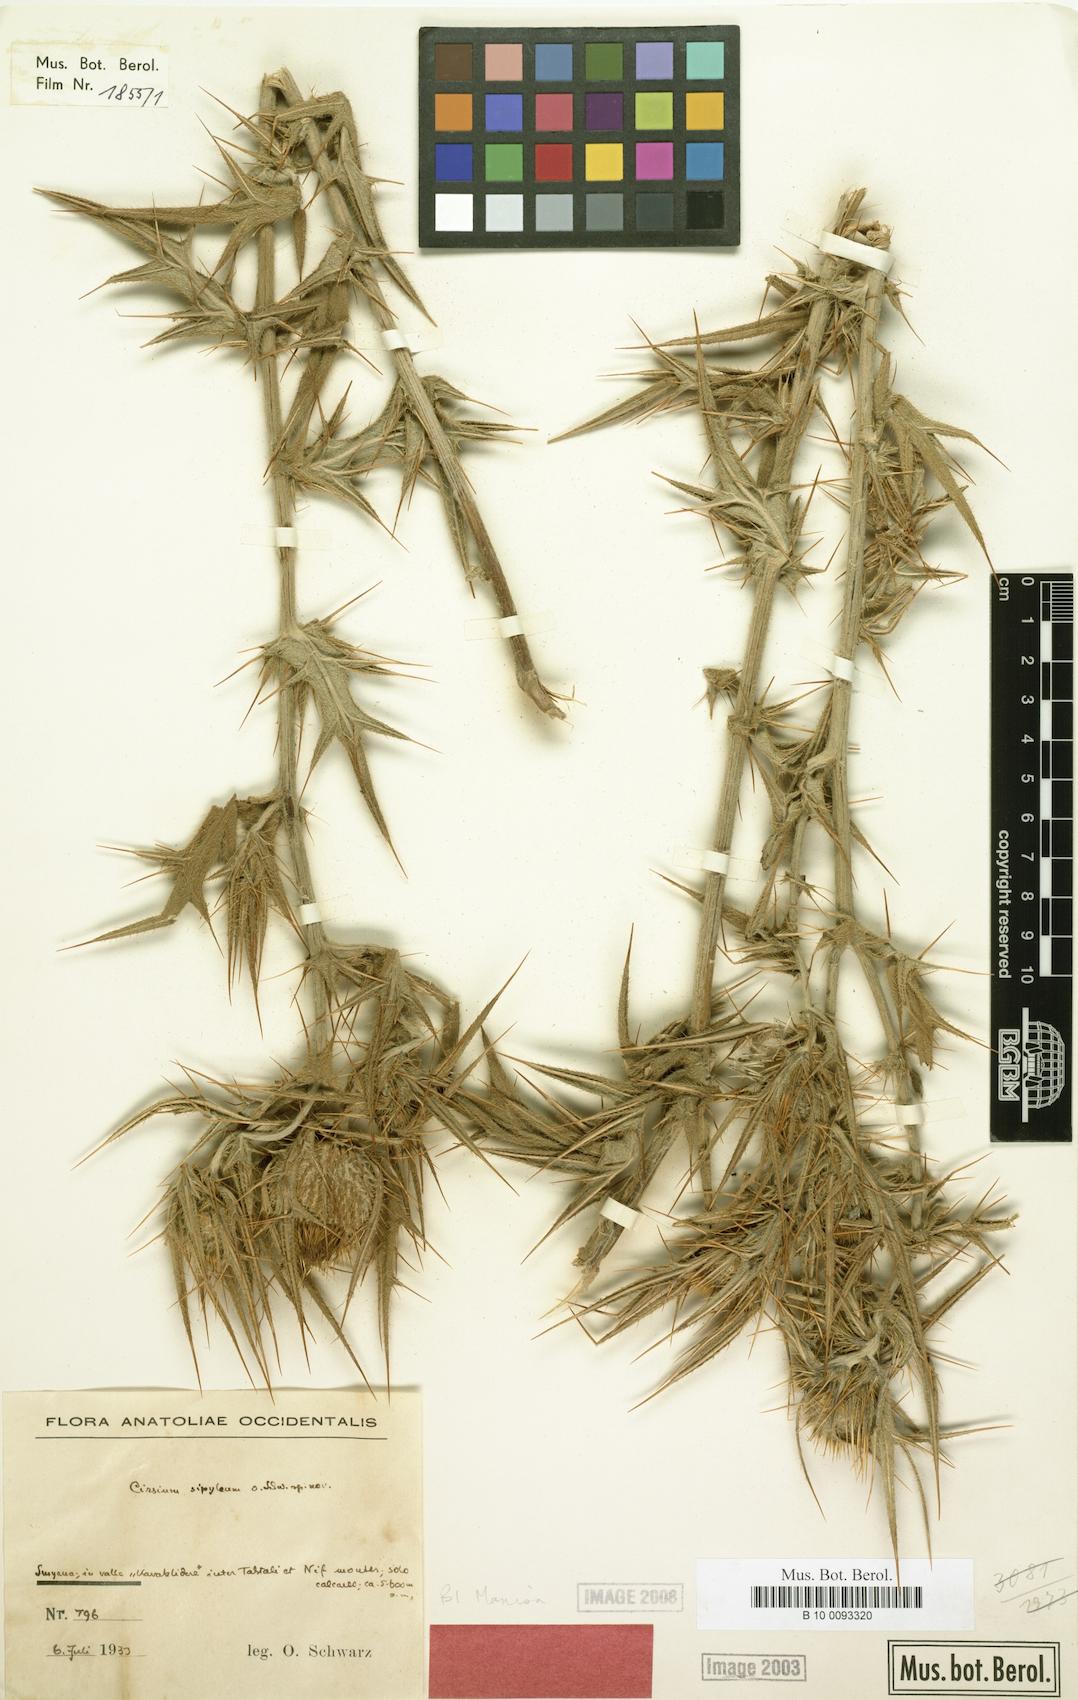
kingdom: Plantae
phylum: Tracheophyta
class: Magnoliopsida
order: Asterales
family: Asteraceae
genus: Lophiolepis
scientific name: Lophiolepis sipylea
